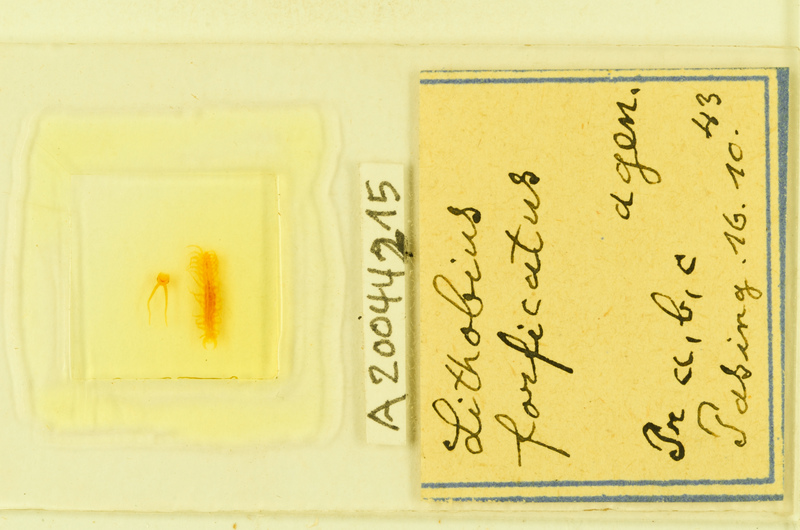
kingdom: Animalia
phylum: Arthropoda
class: Chilopoda
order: Lithobiomorpha
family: Lithobiidae
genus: Lithobius
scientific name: Lithobius forficatus
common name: Centipede
